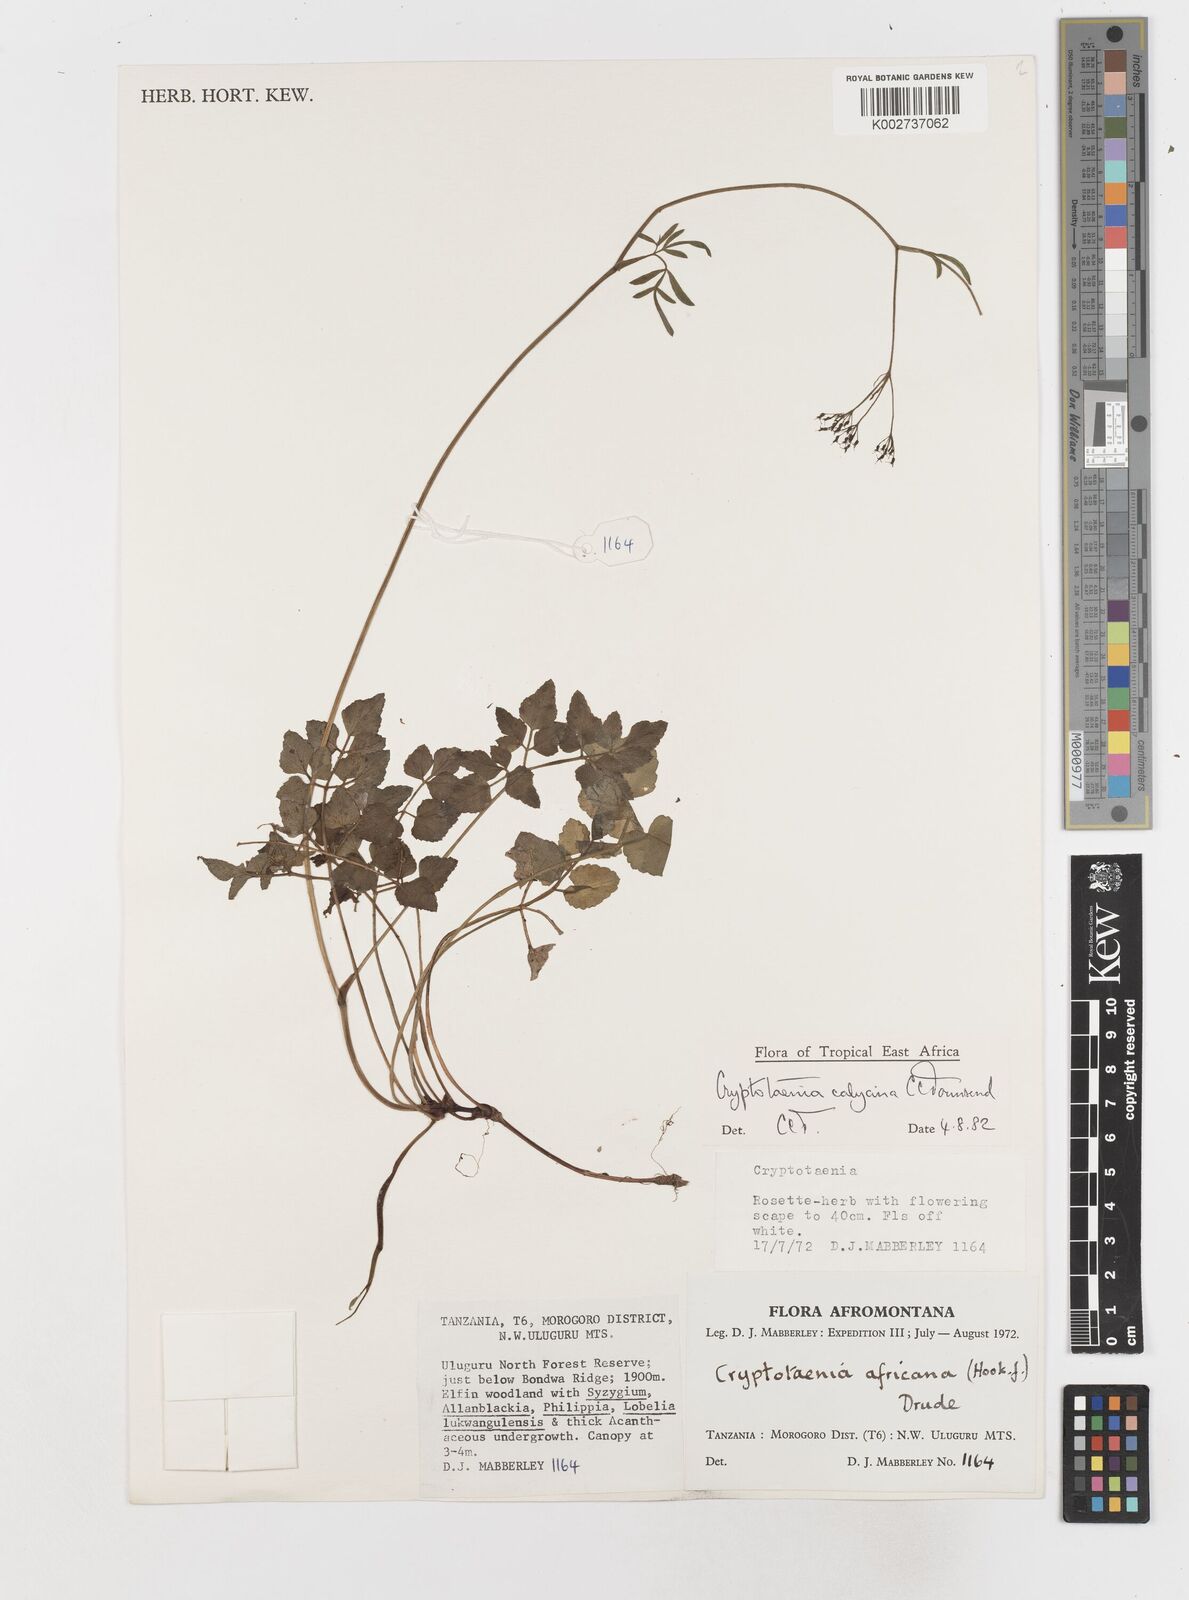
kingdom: Plantae
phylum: Tracheophyta
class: Magnoliopsida
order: Apiales
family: Apiaceae
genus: Cryptotaenia
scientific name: Cryptotaenia calycina
